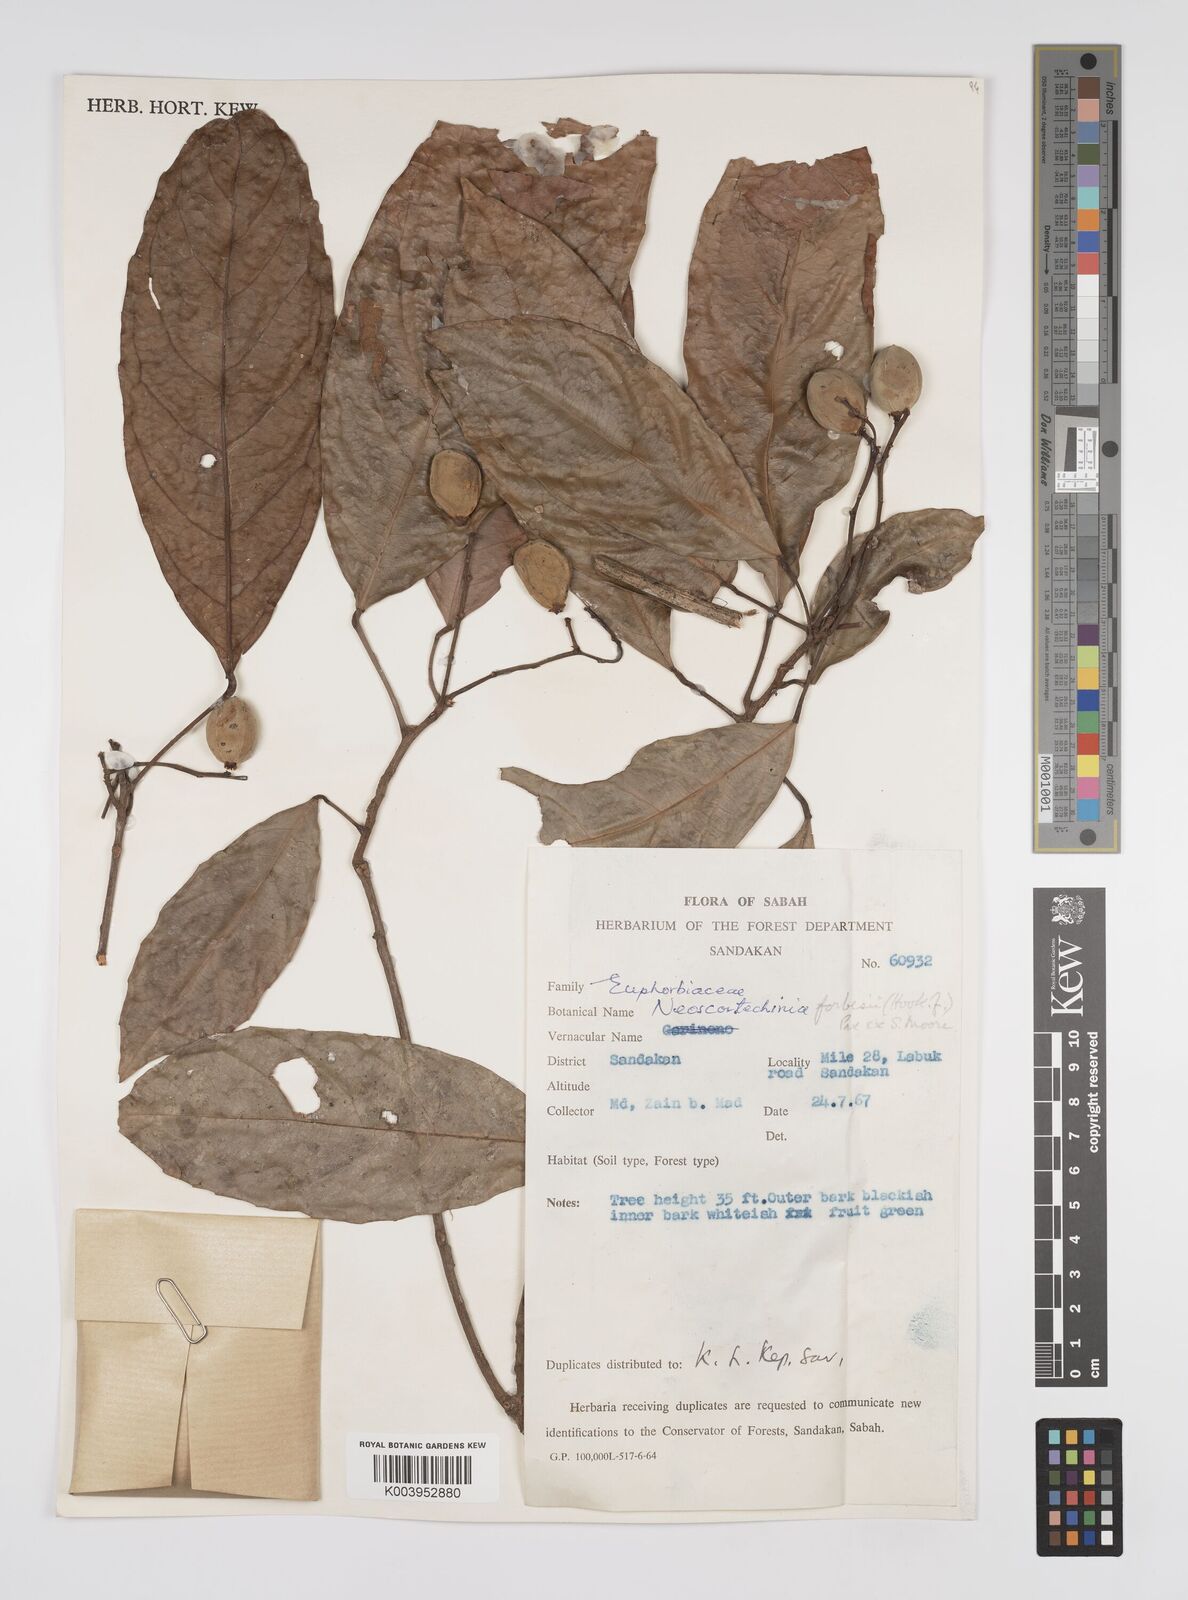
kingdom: Plantae
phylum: Tracheophyta
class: Magnoliopsida
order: Malpighiales
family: Euphorbiaceae
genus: Neoscortechinia
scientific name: Neoscortechinia philippinensis
